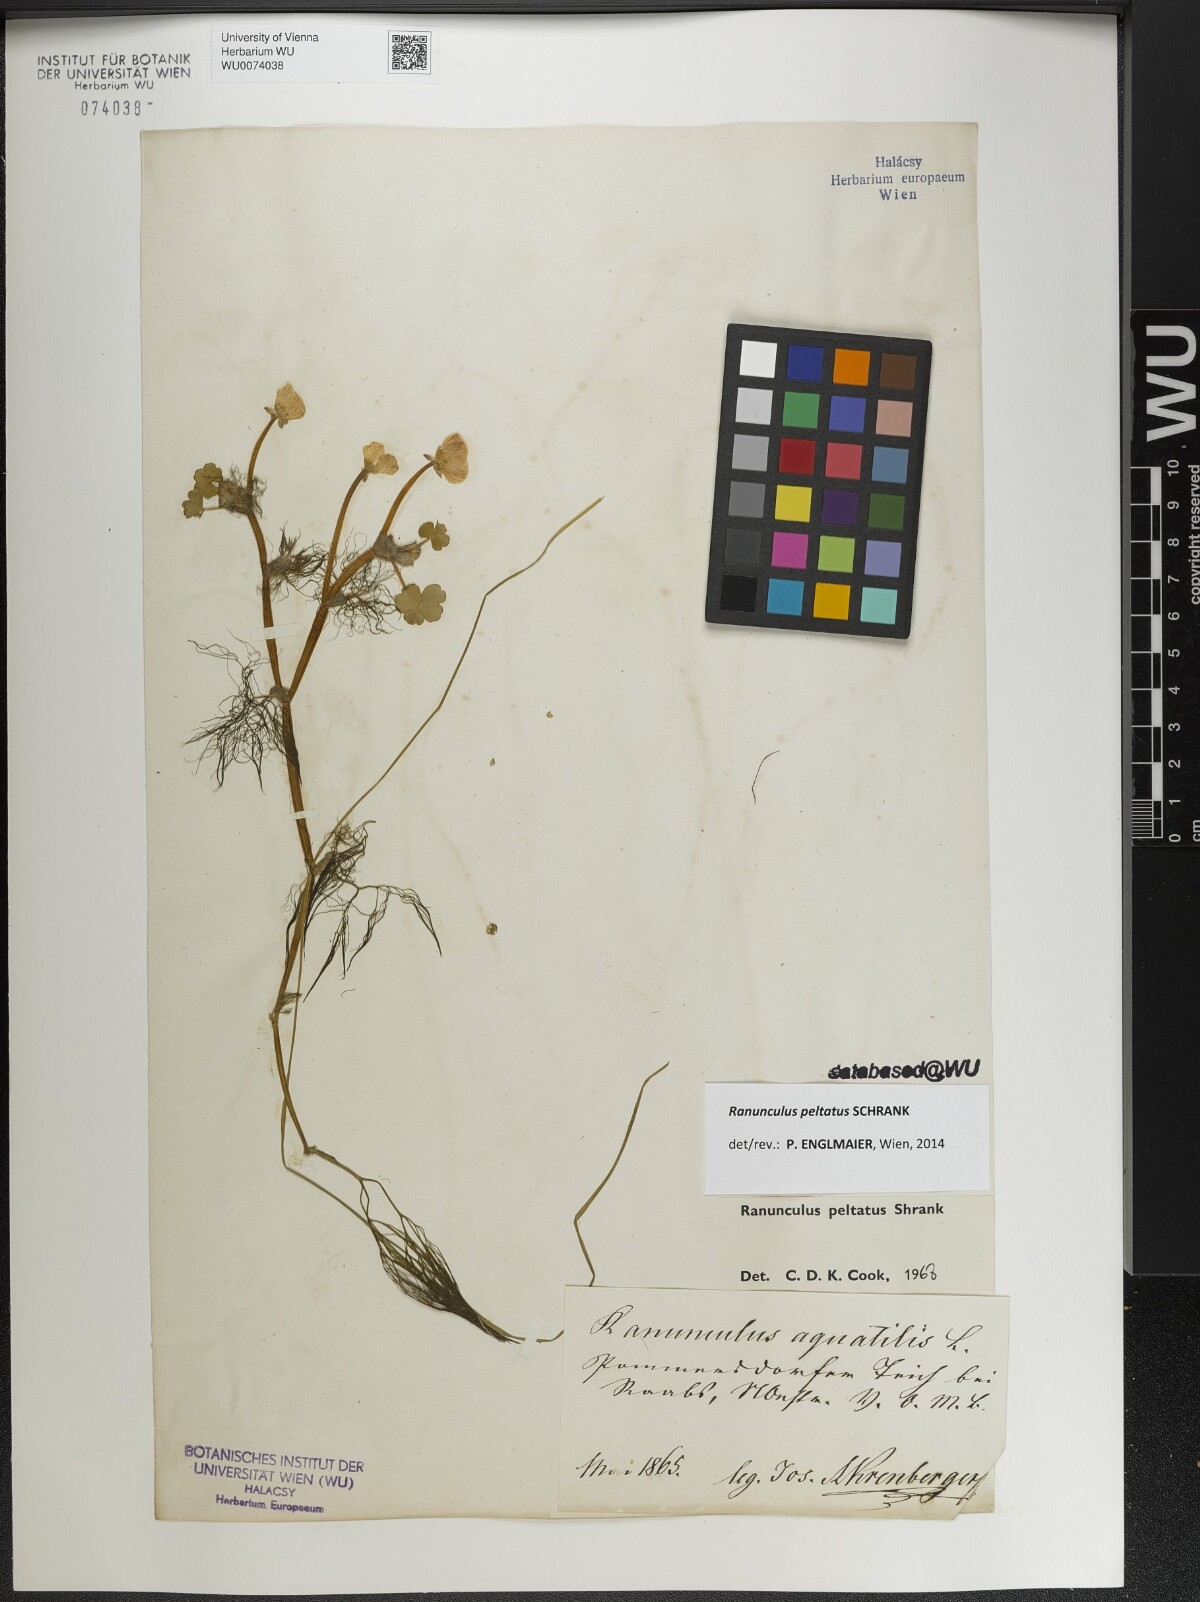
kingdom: Plantae
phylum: Tracheophyta
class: Magnoliopsida
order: Ranunculales
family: Ranunculaceae
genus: Ranunculus
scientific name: Ranunculus peltatus
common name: Pond water-crowfoot
